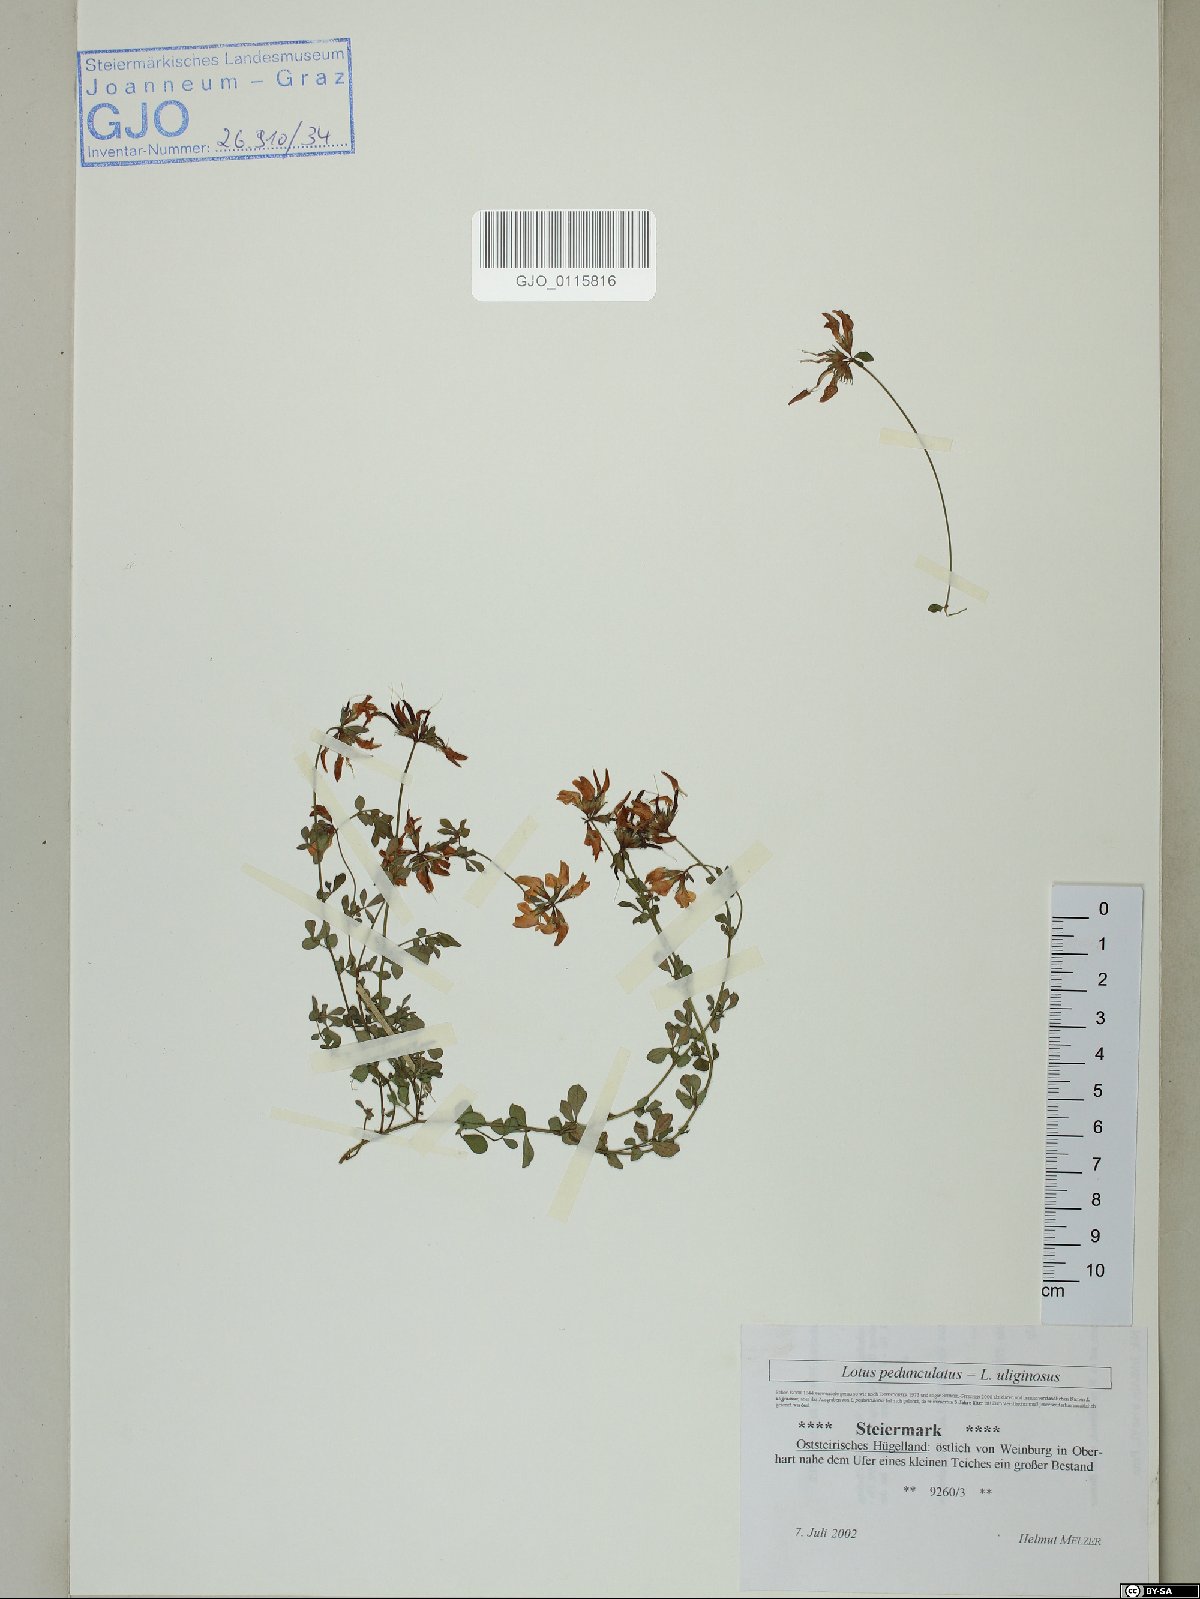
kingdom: Plantae
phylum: Tracheophyta
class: Magnoliopsida
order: Fabales
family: Fabaceae
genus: Lotus
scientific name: Lotus pedunculatus
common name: Greater birdsfoot-trefoil
